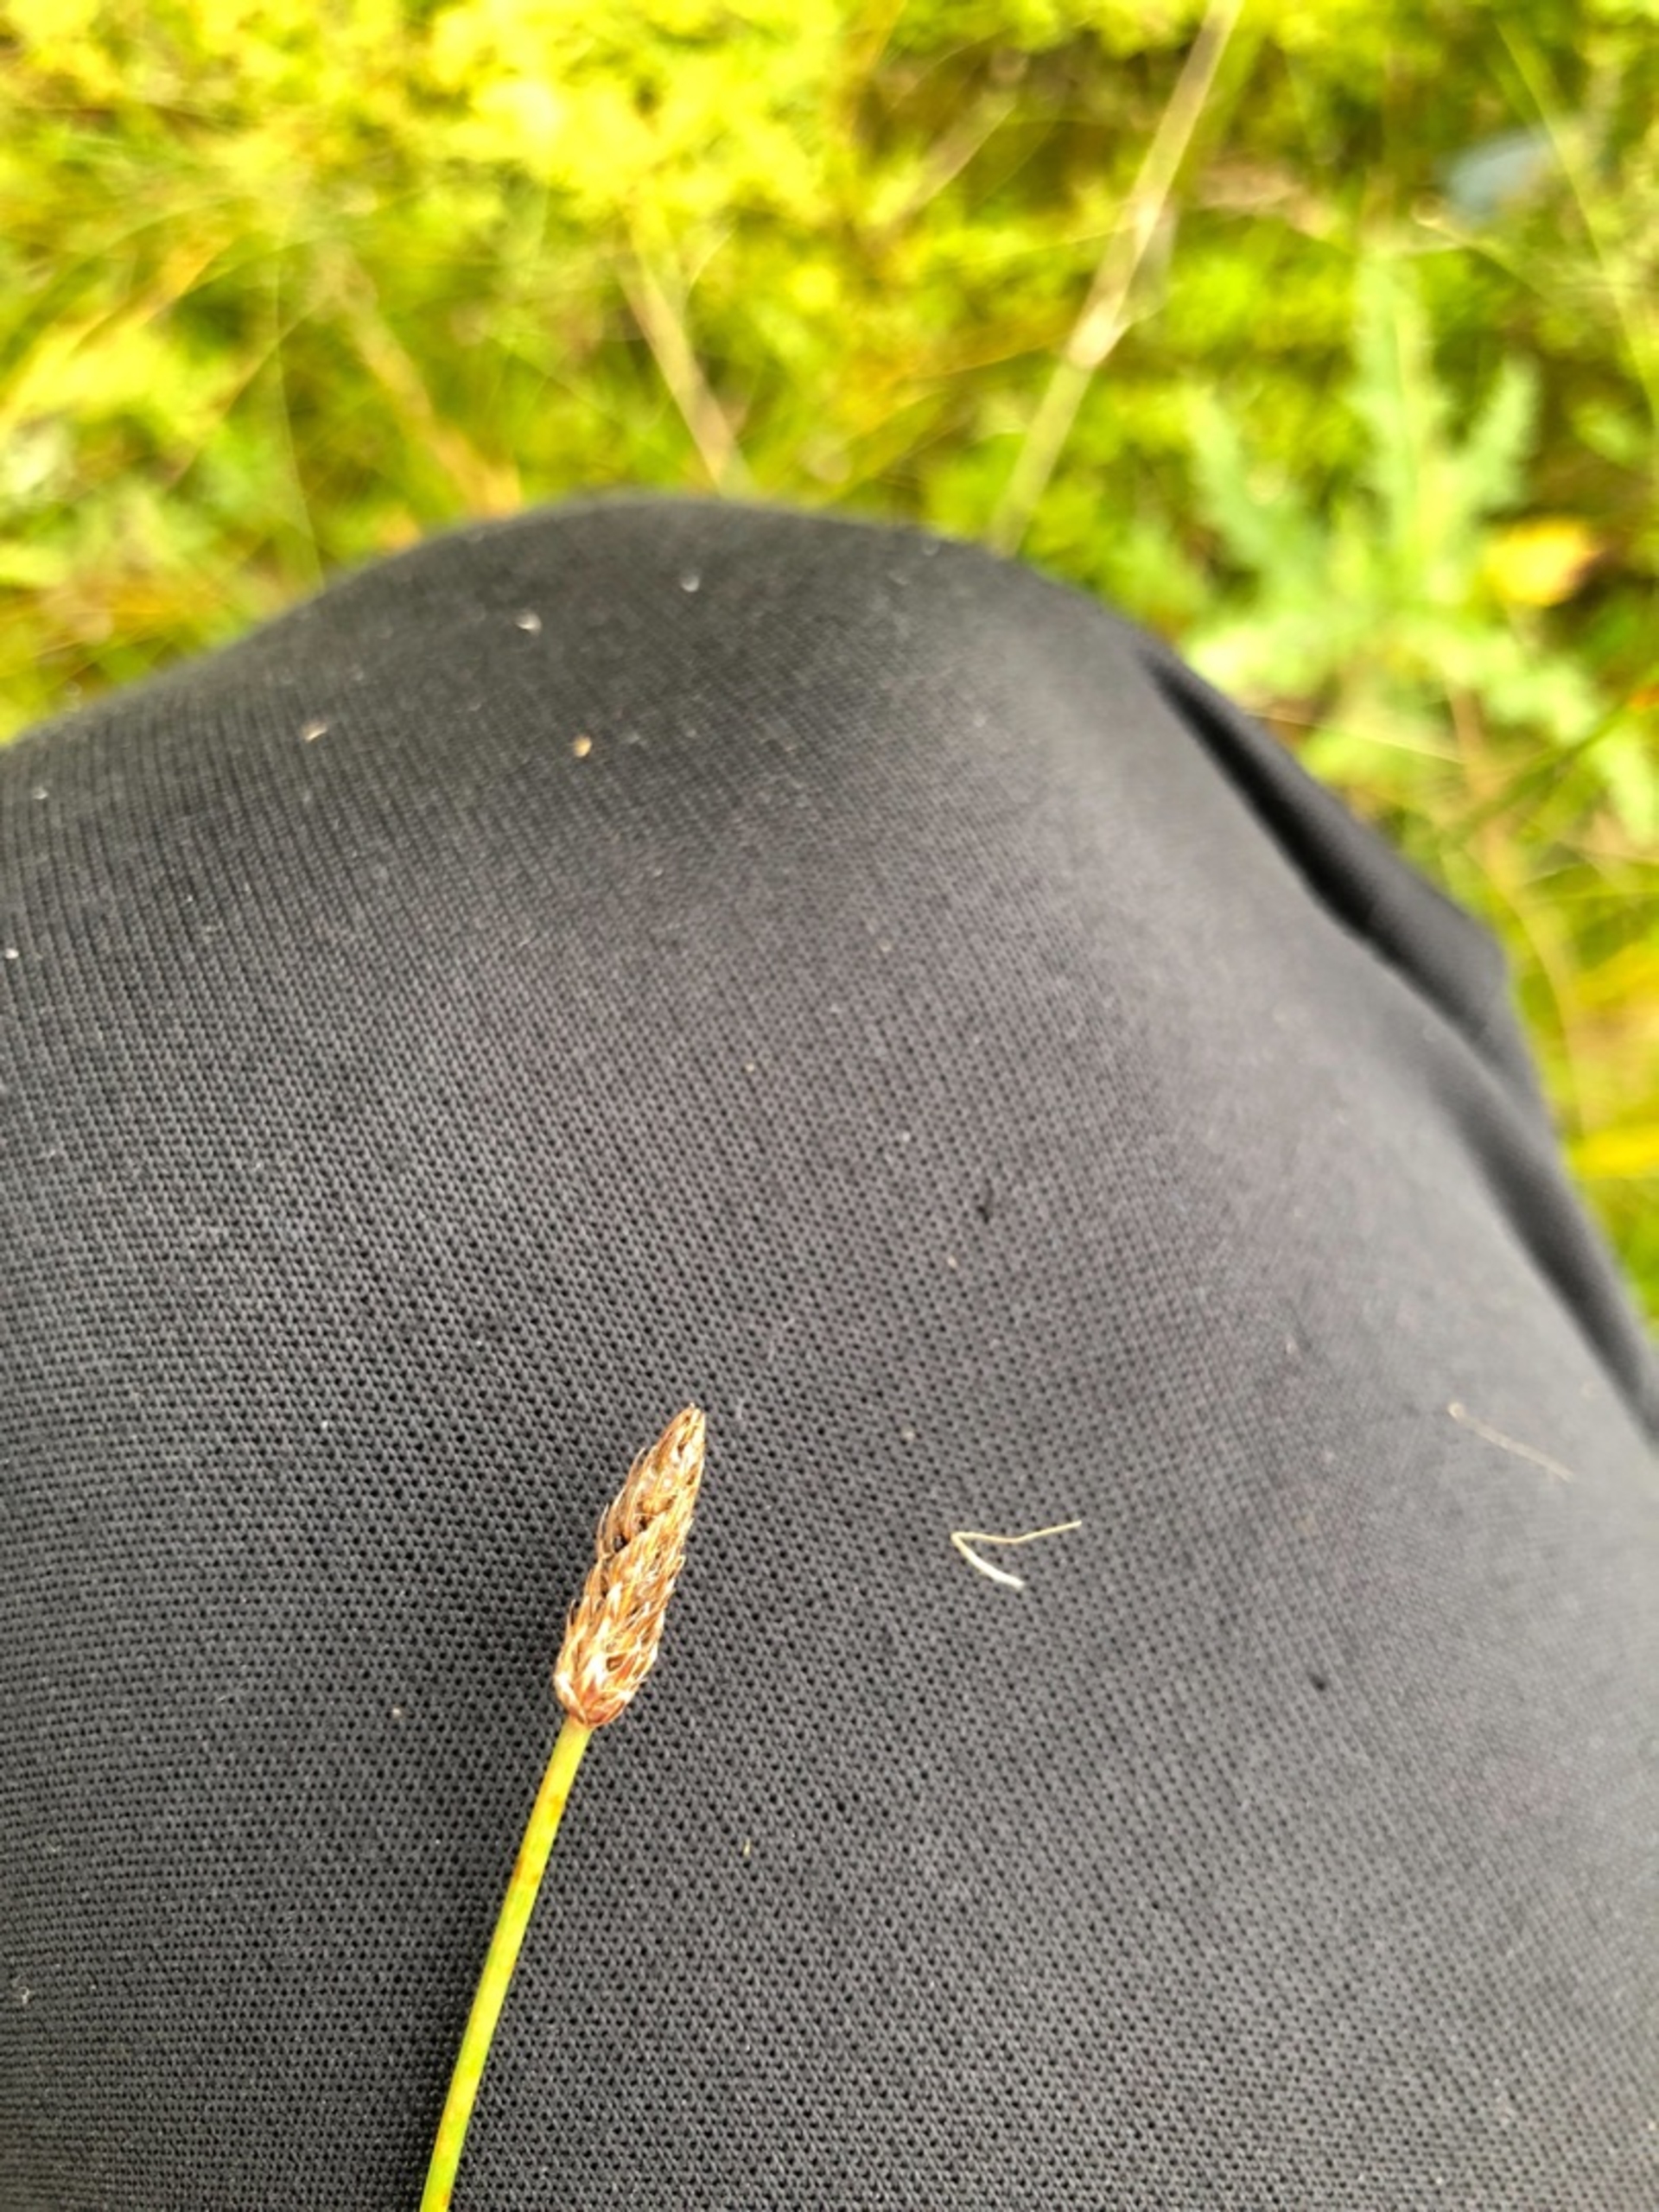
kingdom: Plantae
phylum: Tracheophyta
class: Liliopsida
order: Poales
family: Cyperaceae
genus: Eleocharis
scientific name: Eleocharis palustris
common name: Almindelig sumpstrå
